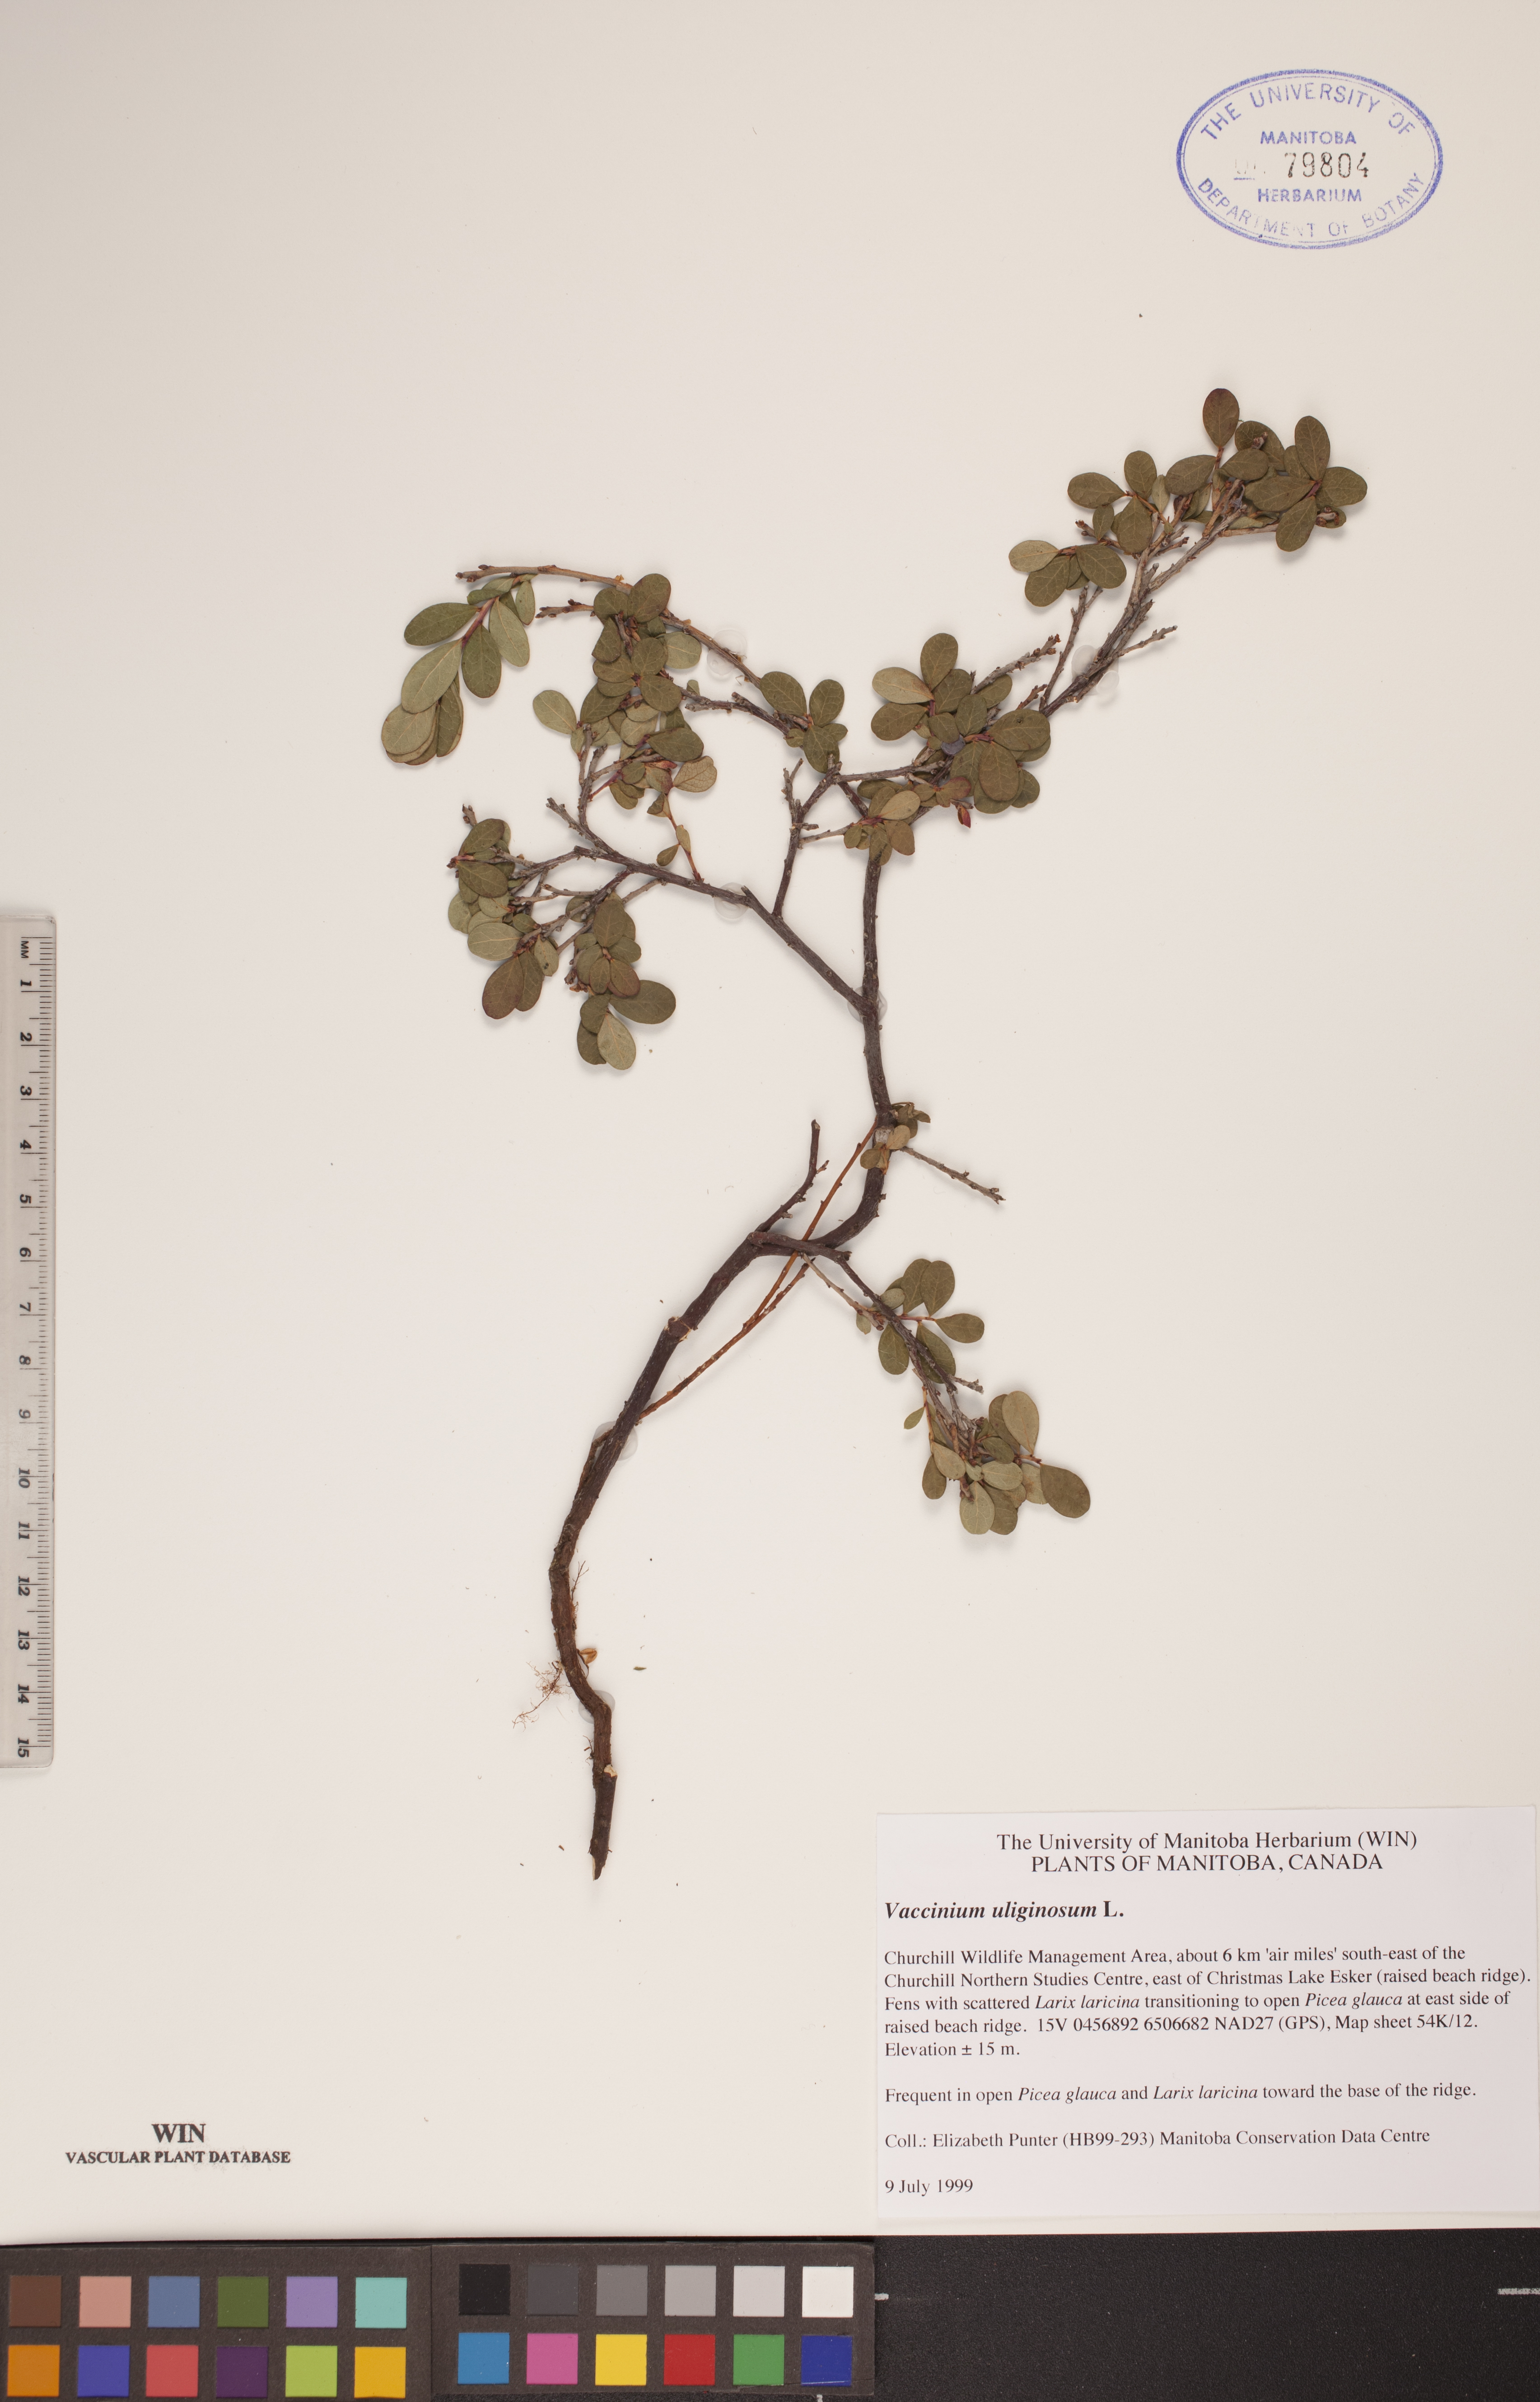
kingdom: Plantae
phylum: Tracheophyta
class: Magnoliopsida
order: Ericales
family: Ericaceae
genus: Vaccinium
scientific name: Vaccinium uliginosum
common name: Bog bilberry
